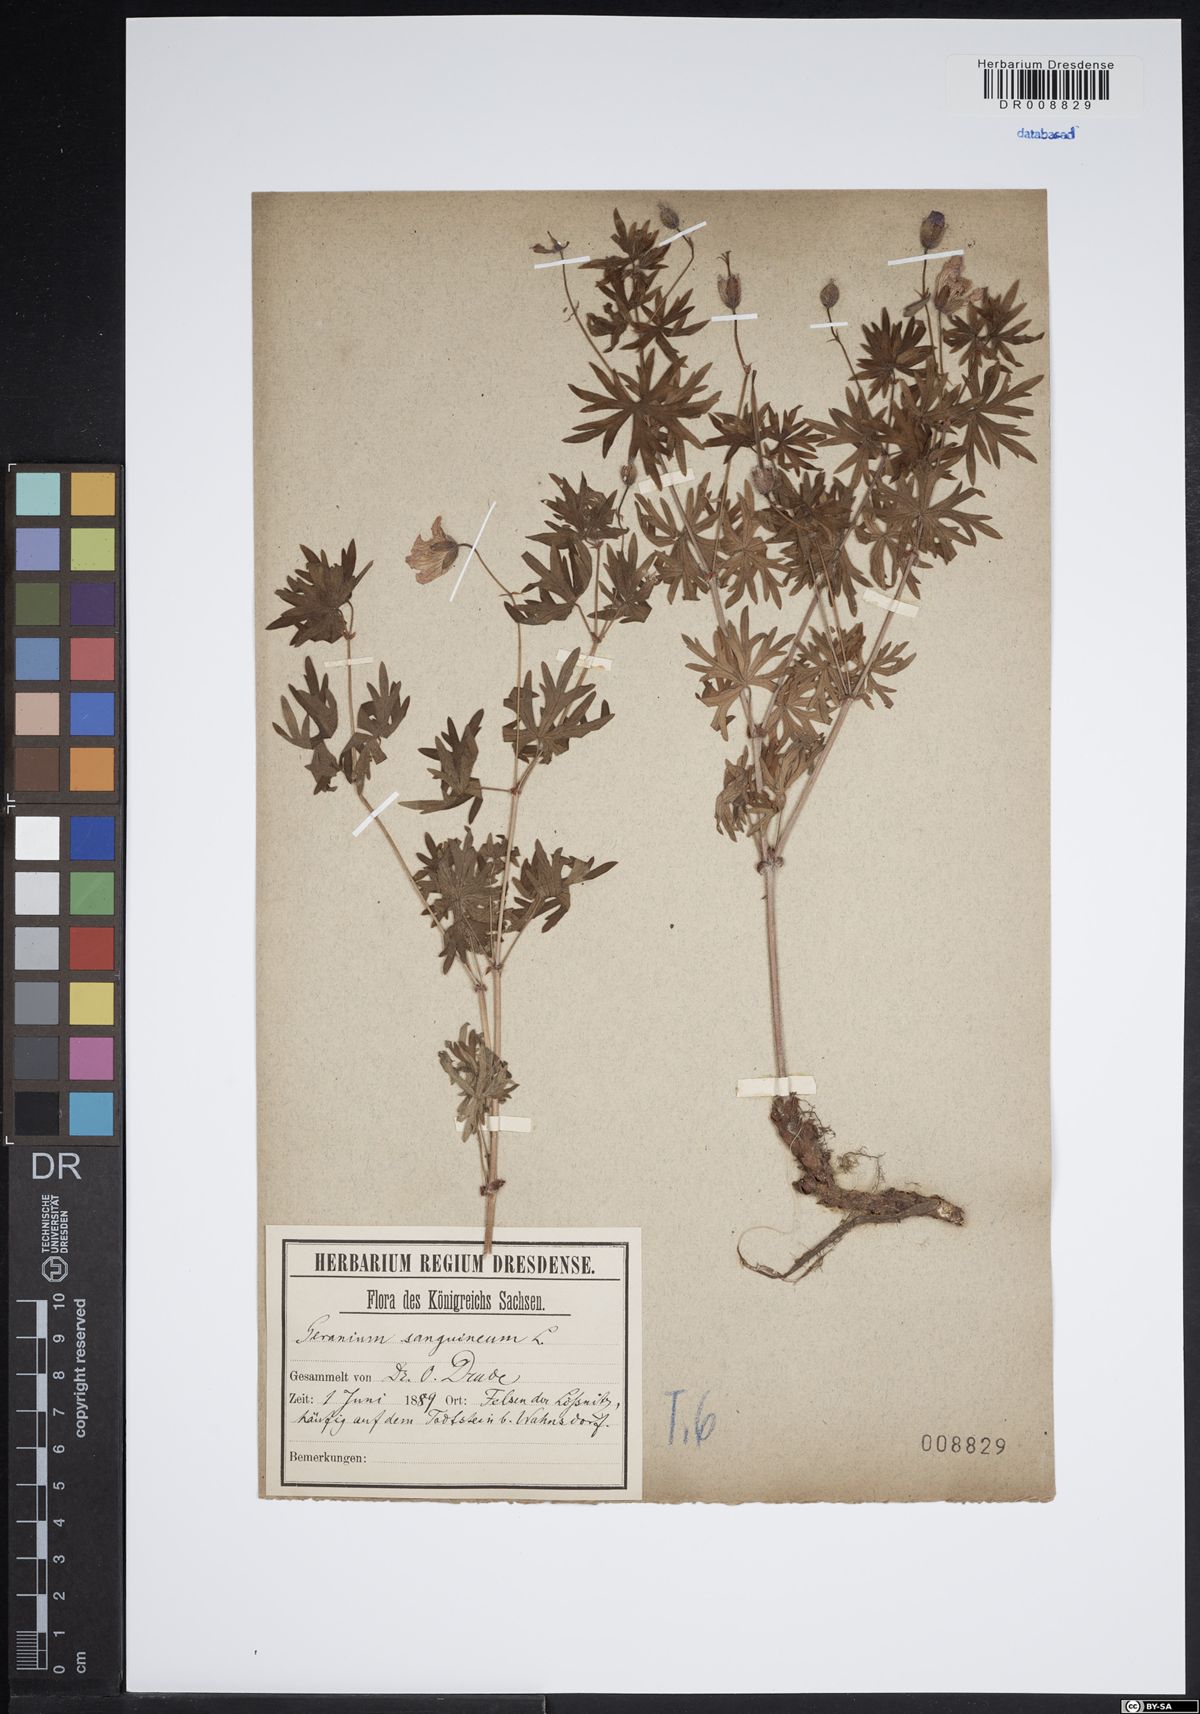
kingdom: Plantae
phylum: Tracheophyta
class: Magnoliopsida
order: Geraniales
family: Geraniaceae
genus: Geranium
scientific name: Geranium sanguineum
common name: Bloody crane's-bill
